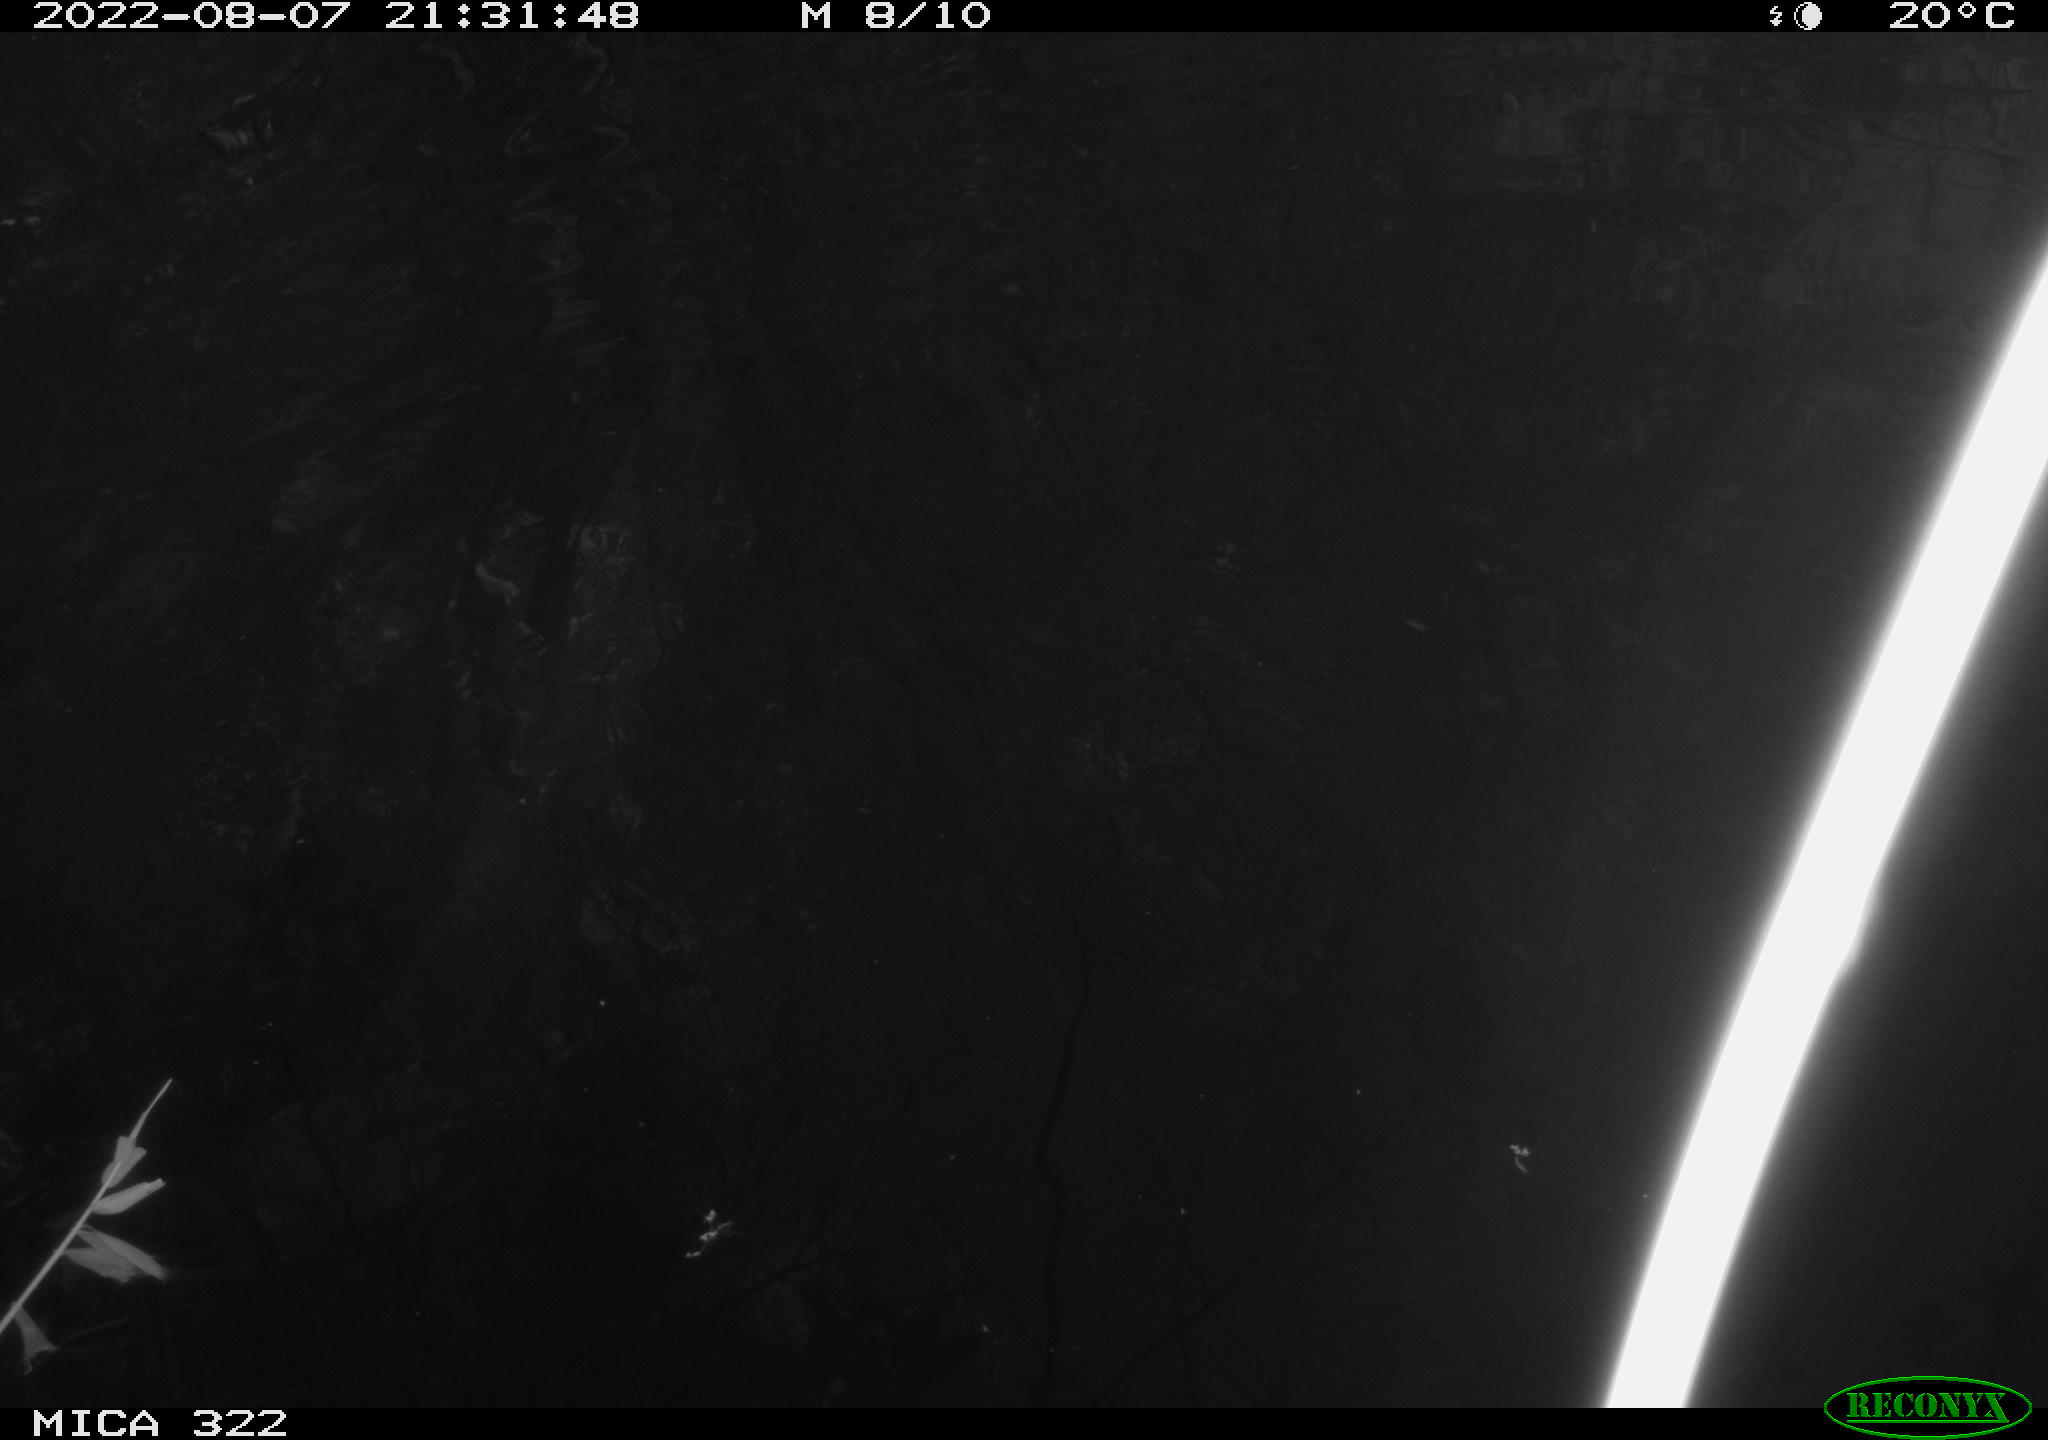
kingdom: Animalia
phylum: Chordata
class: Aves
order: Gruiformes
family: Rallidae
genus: Fulica
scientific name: Fulica atra
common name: Eurasian coot
